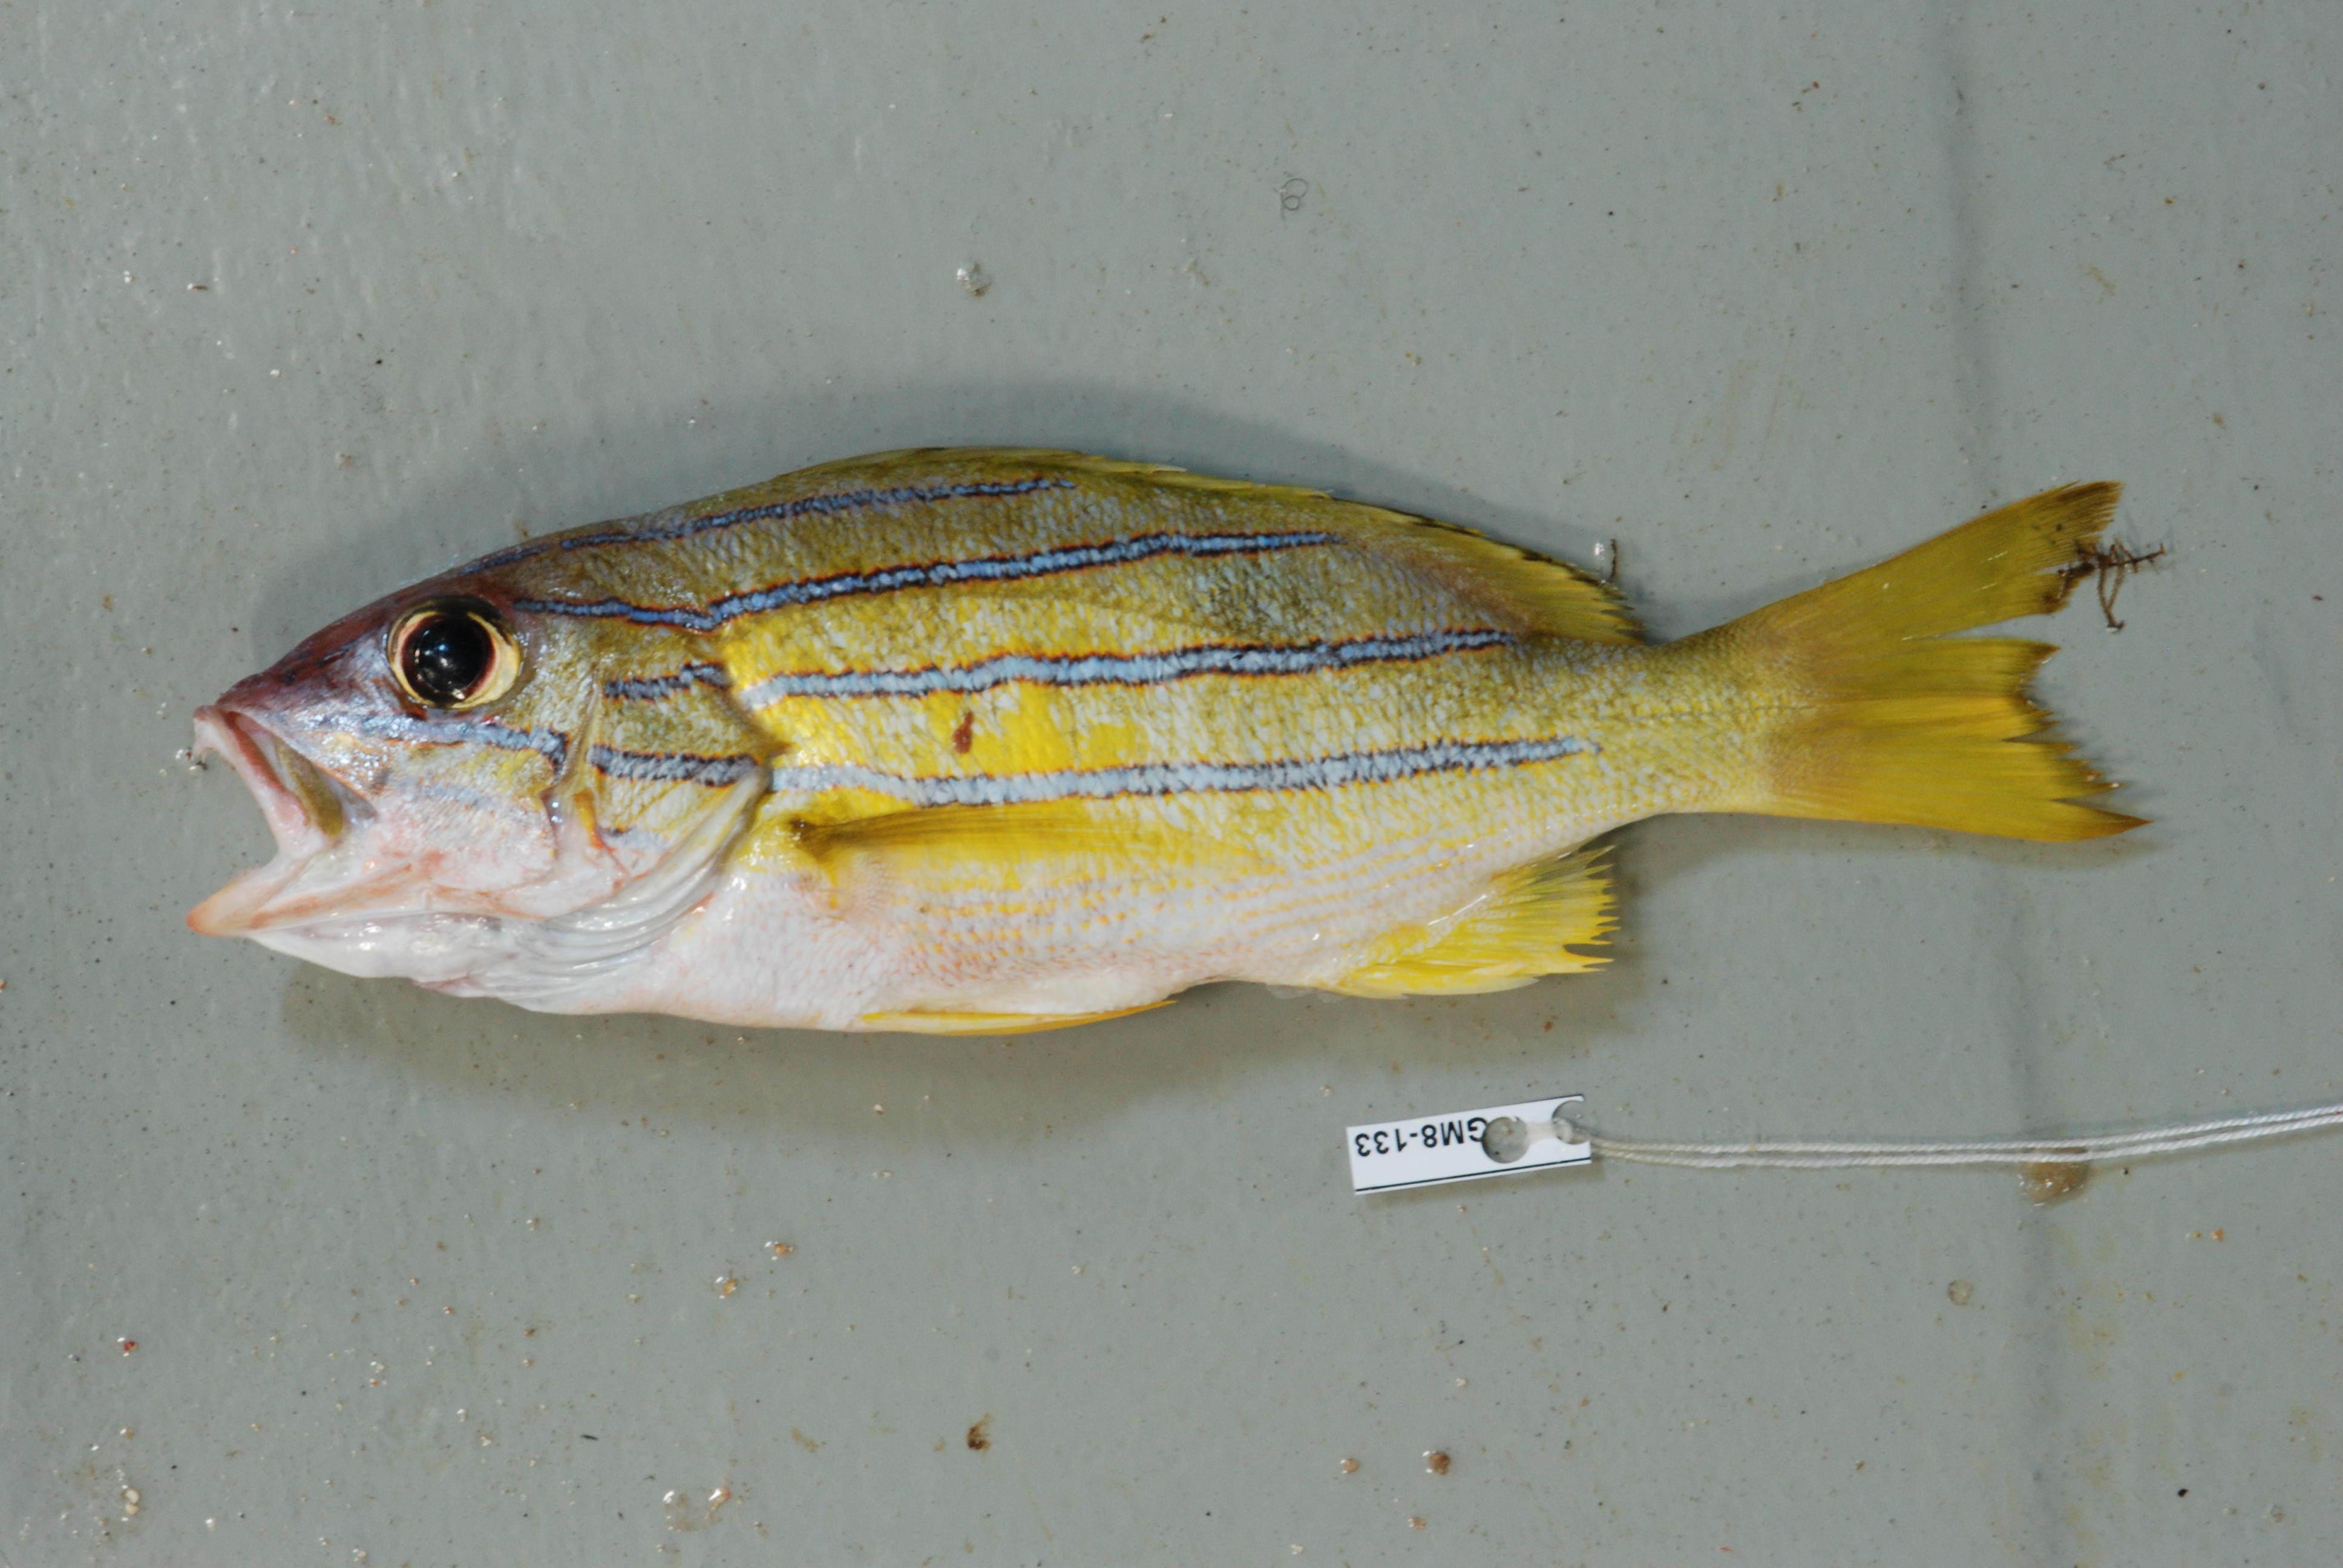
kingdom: Animalia
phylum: Chordata
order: Perciformes
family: Lutjanidae
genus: Lutjanus
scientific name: Lutjanus kasmira
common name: Common bluestripe snapper
